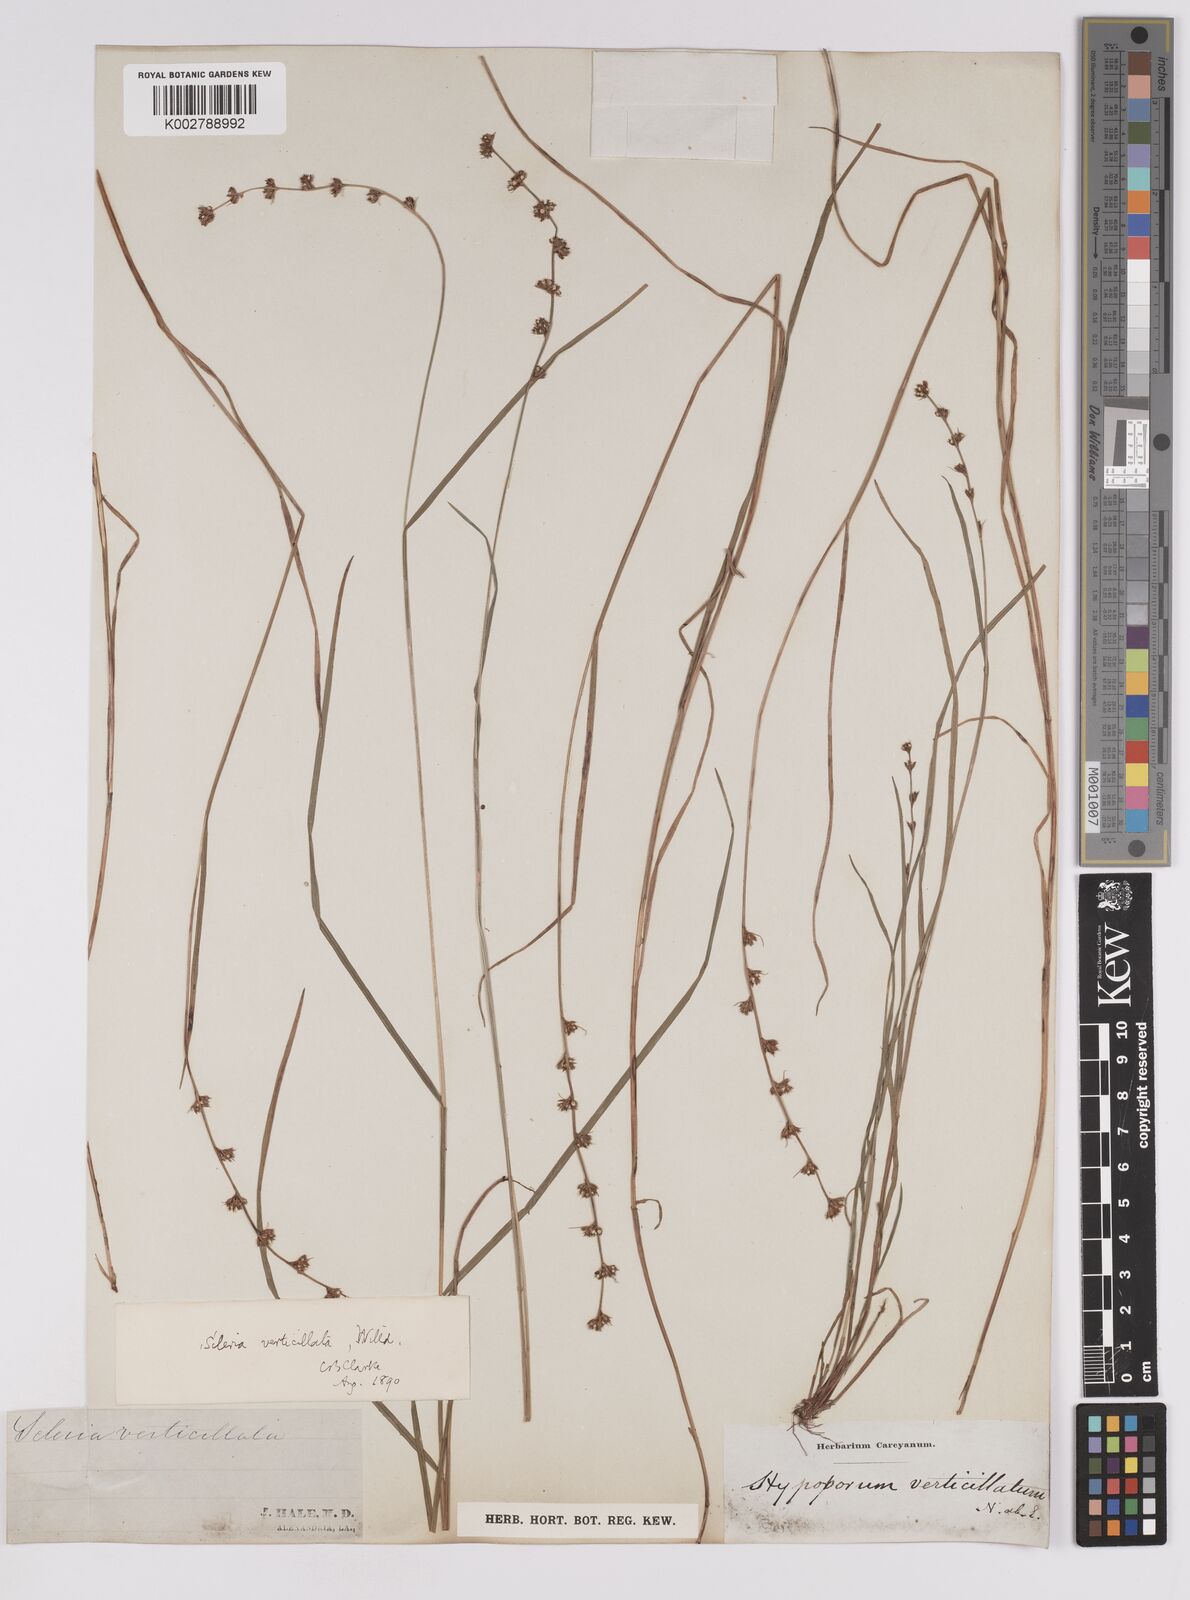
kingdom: Plantae
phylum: Tracheophyta
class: Liliopsida
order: Poales
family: Cyperaceae
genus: Scleria
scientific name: Scleria verticillata
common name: Low nutrush
